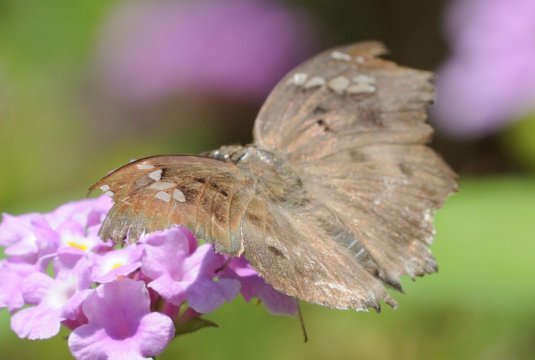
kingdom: Animalia
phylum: Arthropoda
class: Insecta
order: Lepidoptera
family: Hesperiidae
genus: Tagiades
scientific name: Tagiades flesus
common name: Clouded Flat
